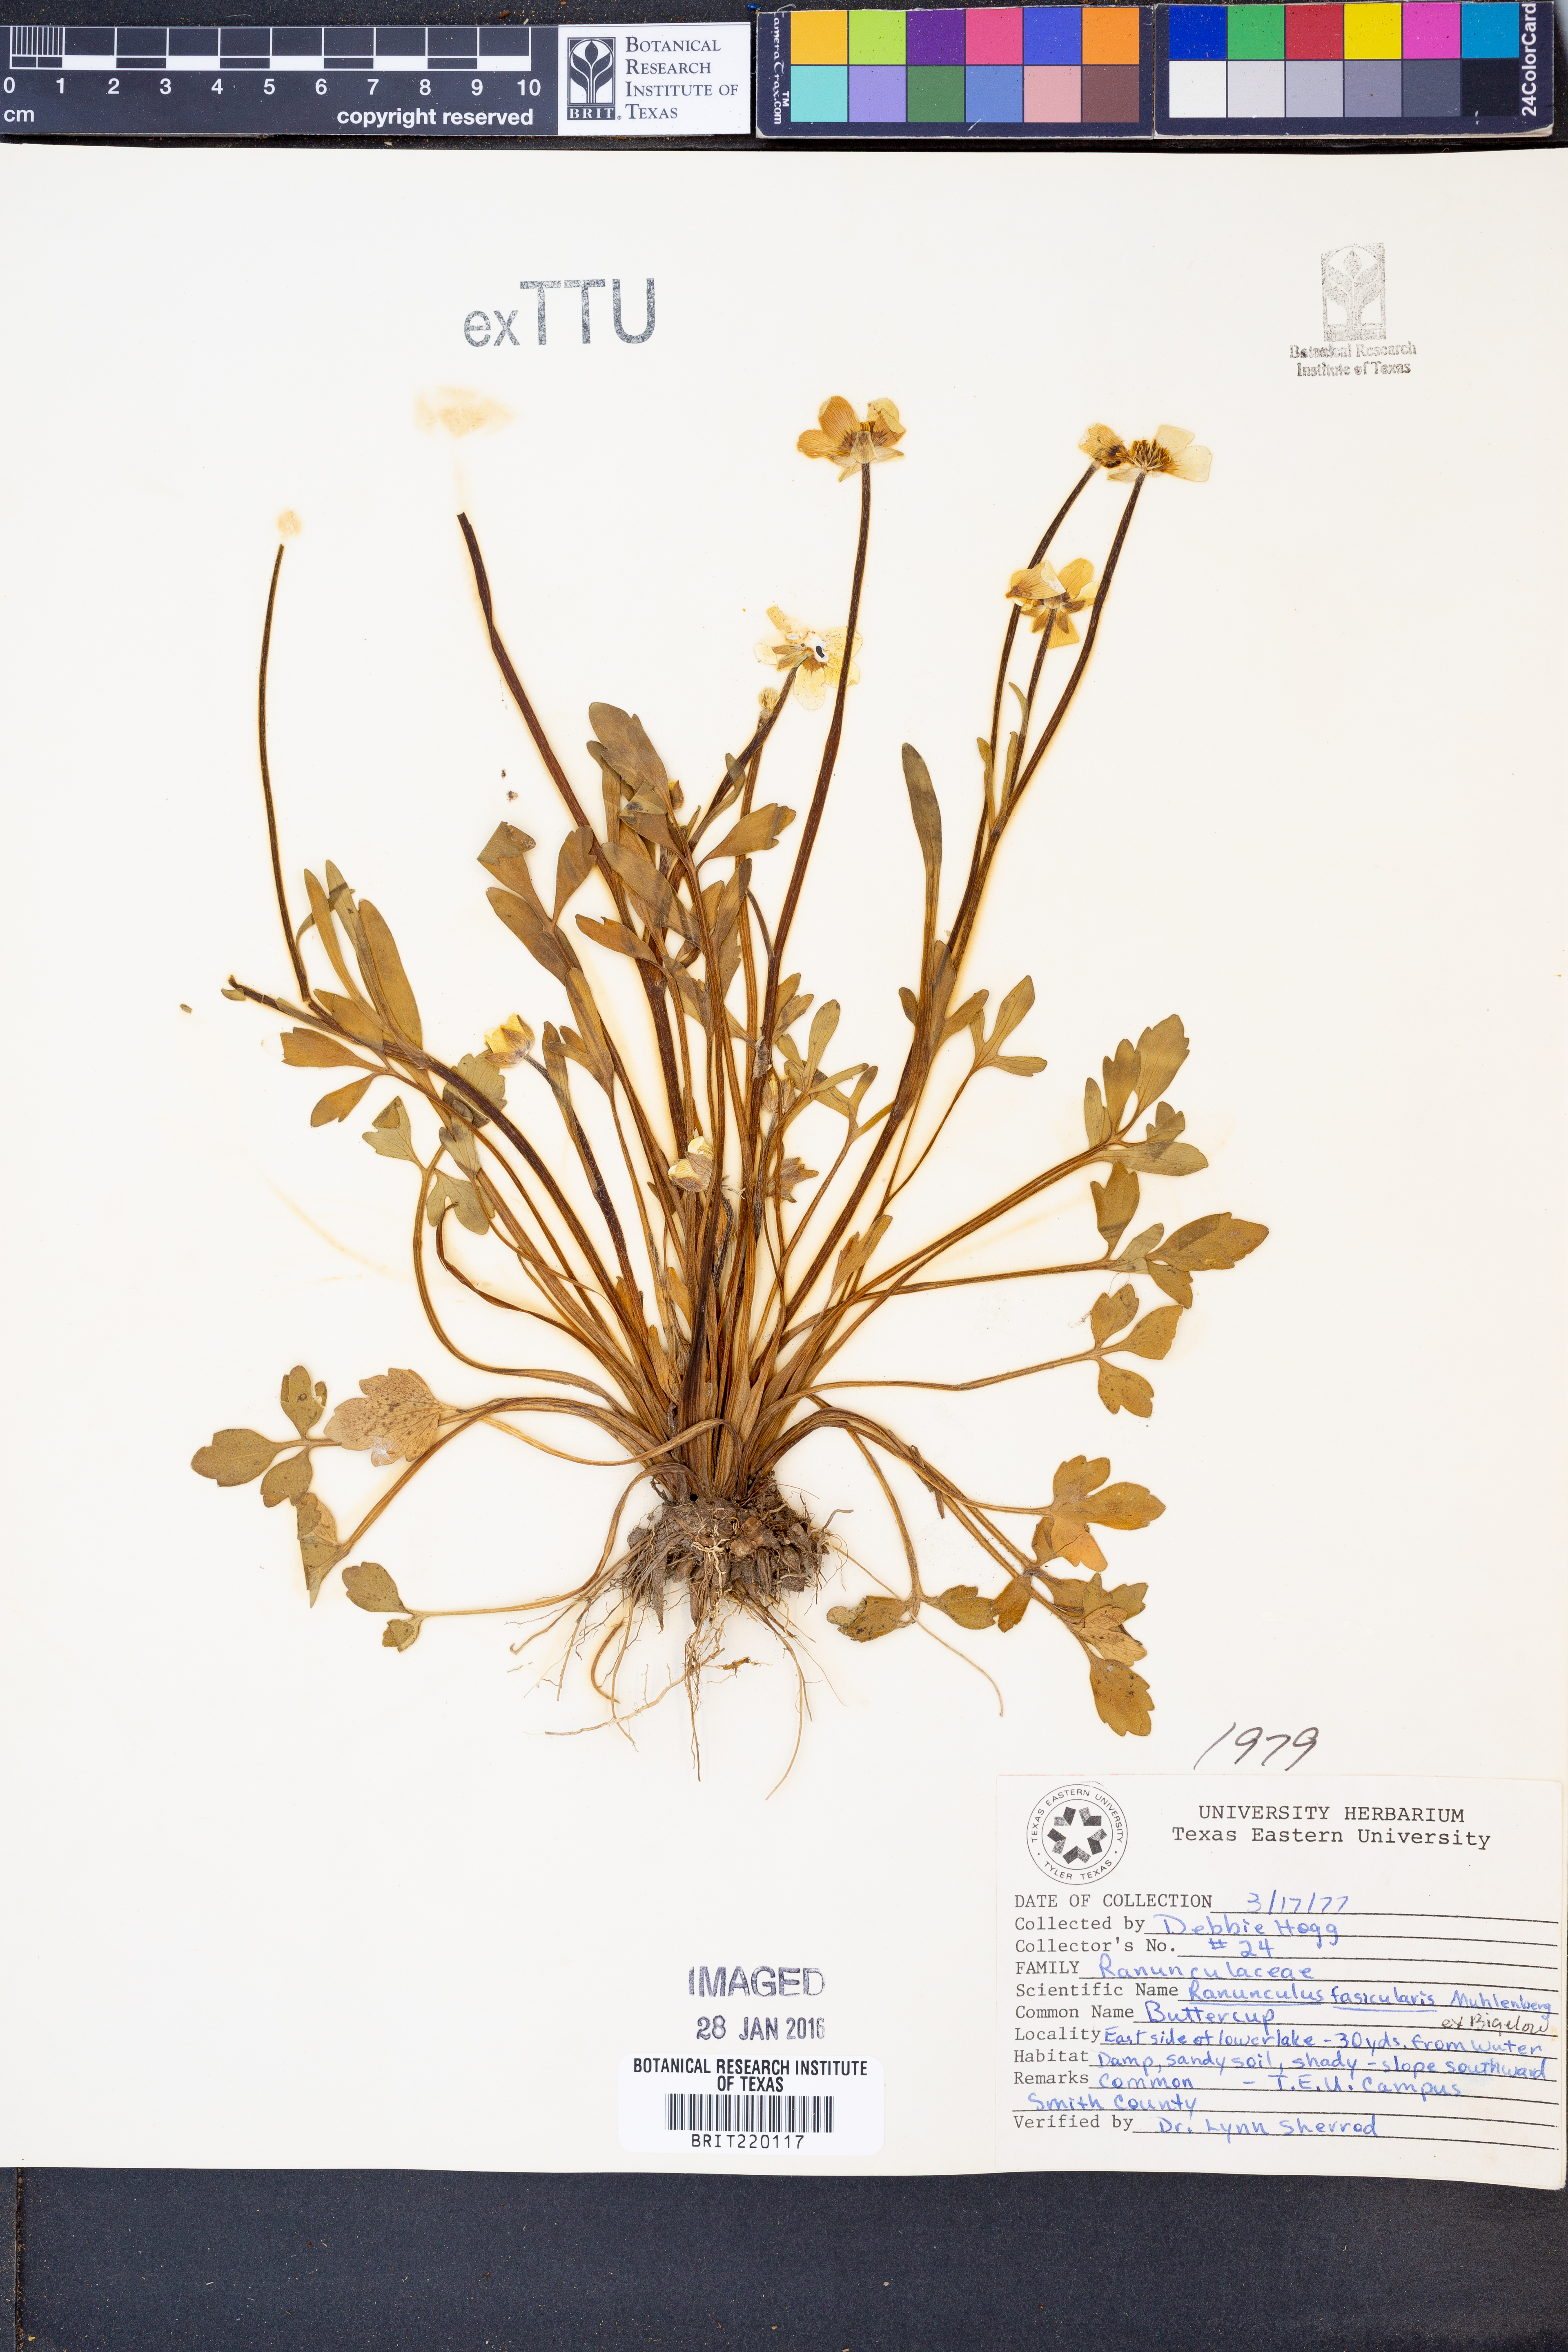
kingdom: Plantae
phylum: Tracheophyta
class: Magnoliopsida
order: Ranunculales
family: Ranunculaceae
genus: Ranunculus
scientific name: Ranunculus fascicularis
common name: Early buttercup
